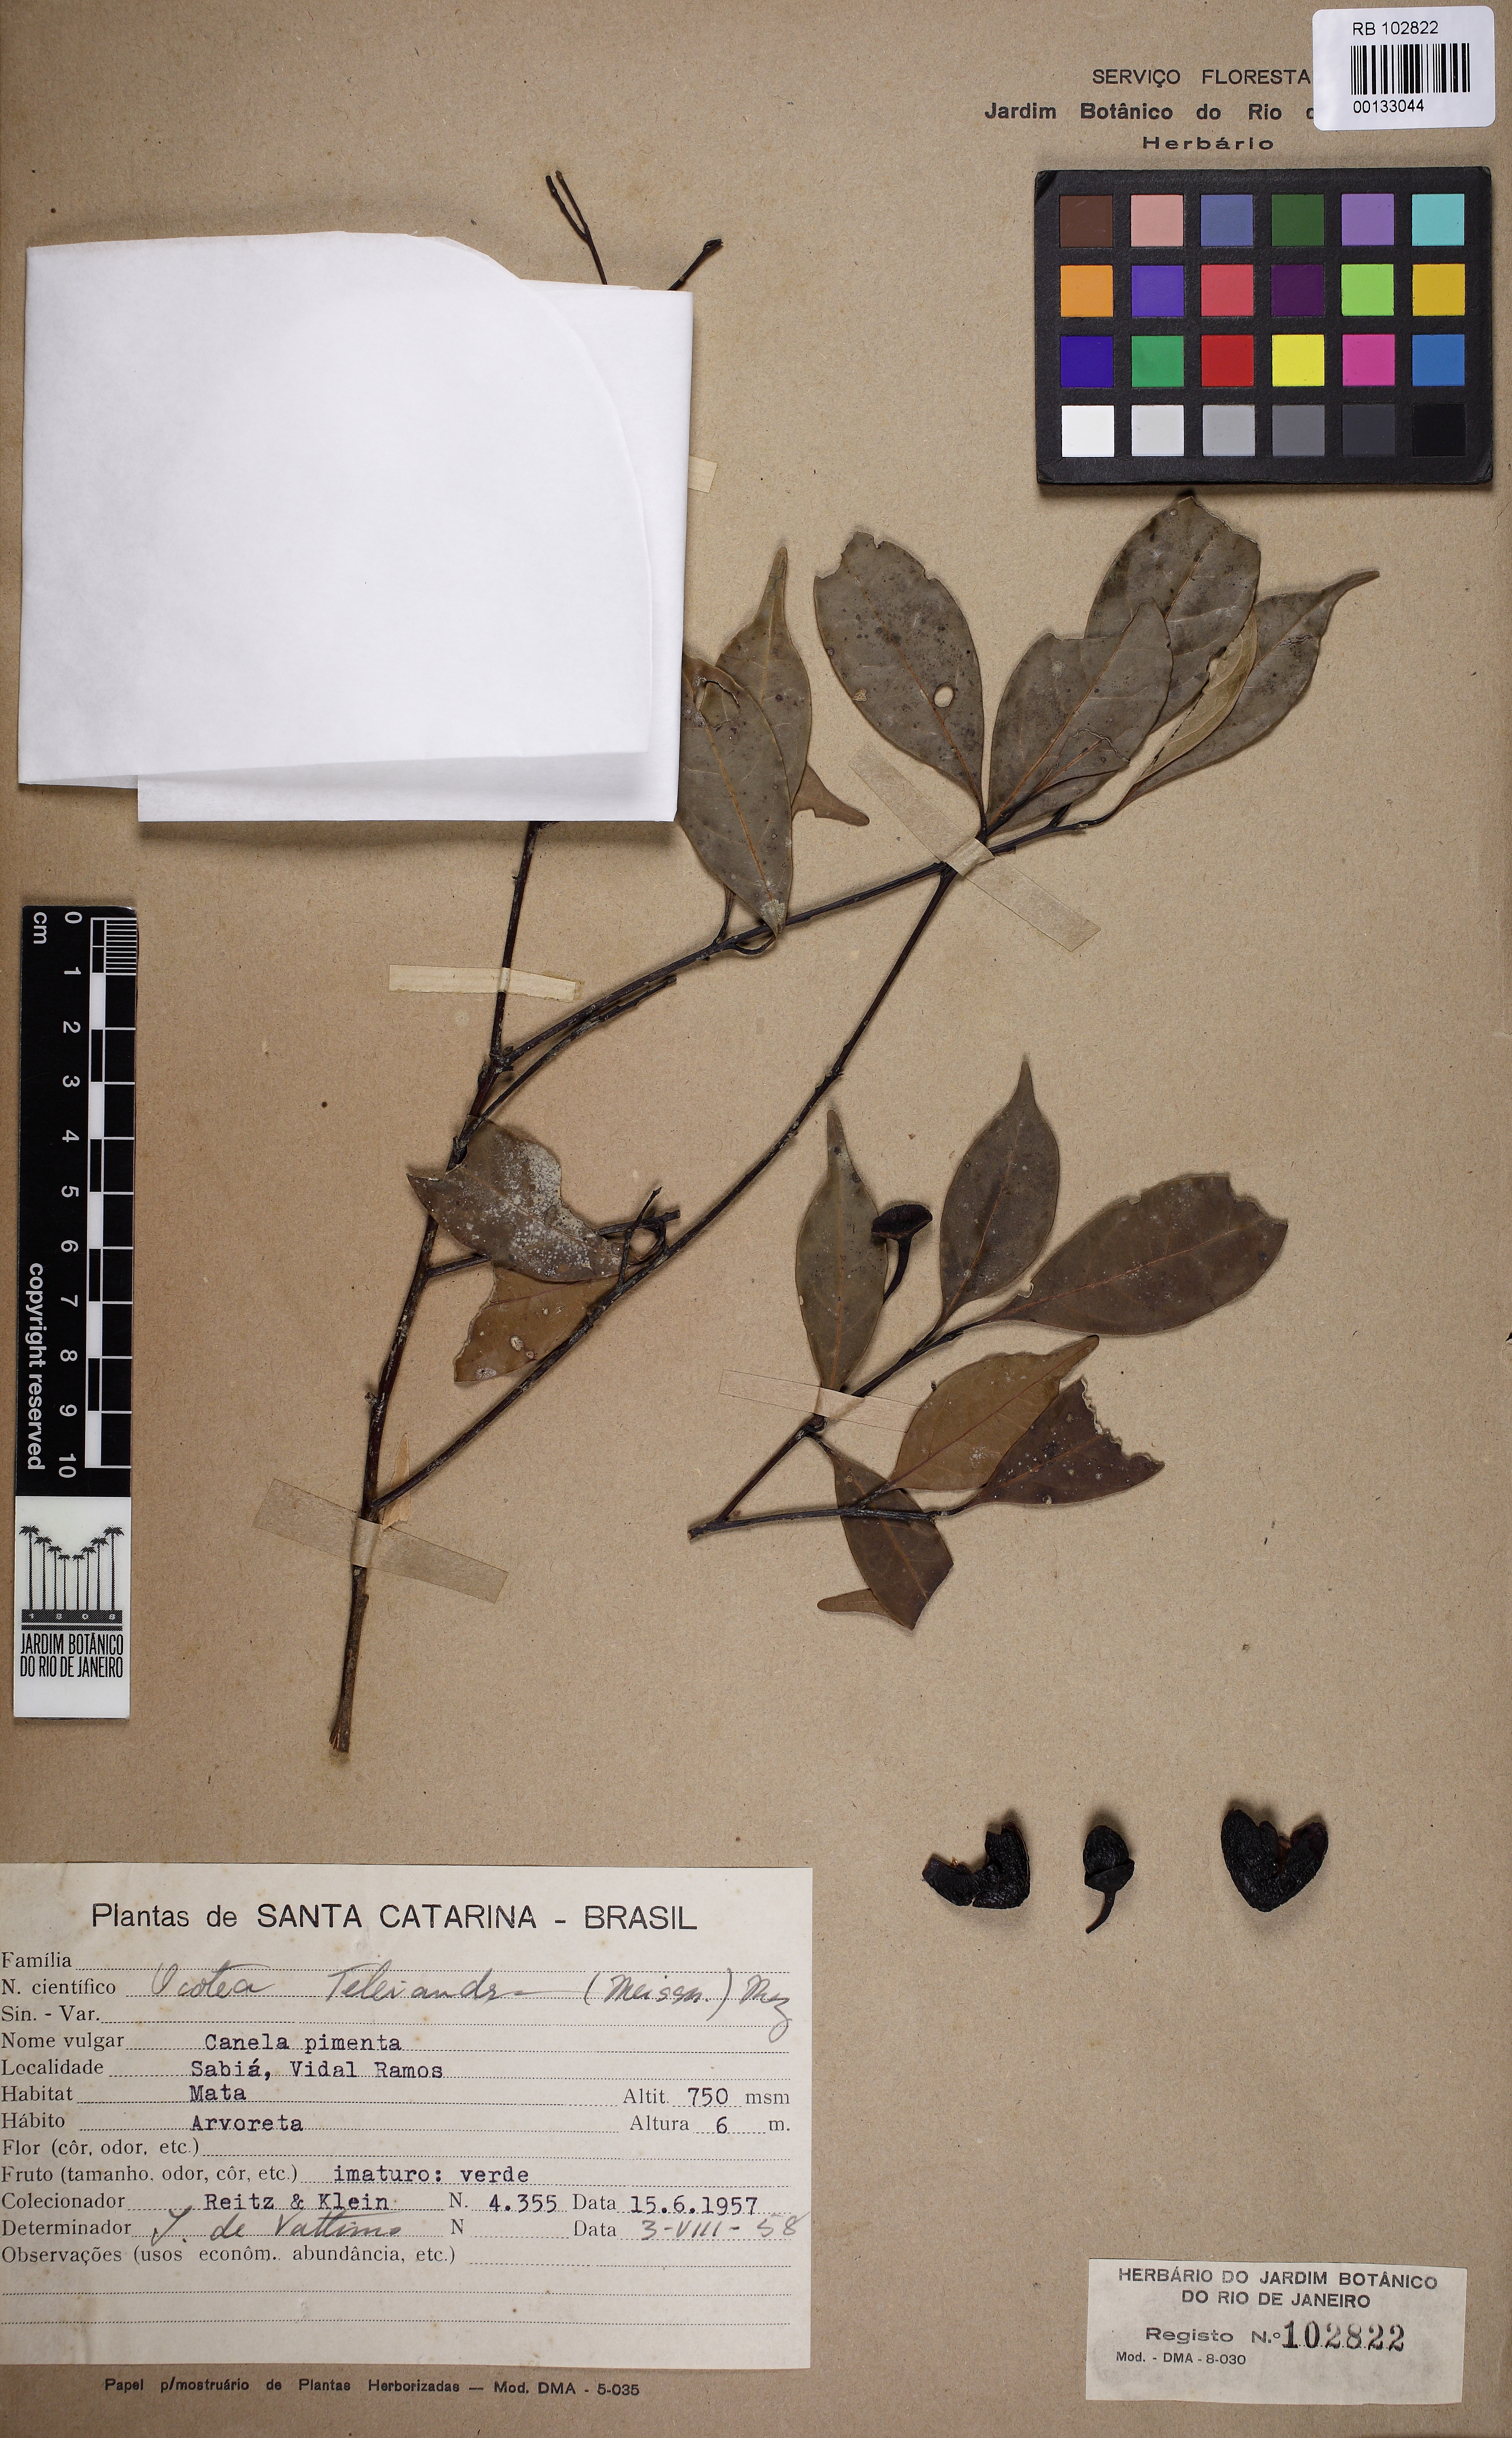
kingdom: Plantae
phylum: Tracheophyta
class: Magnoliopsida
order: Laurales
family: Lauraceae
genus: Ocotea
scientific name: Ocotea teleiandra
